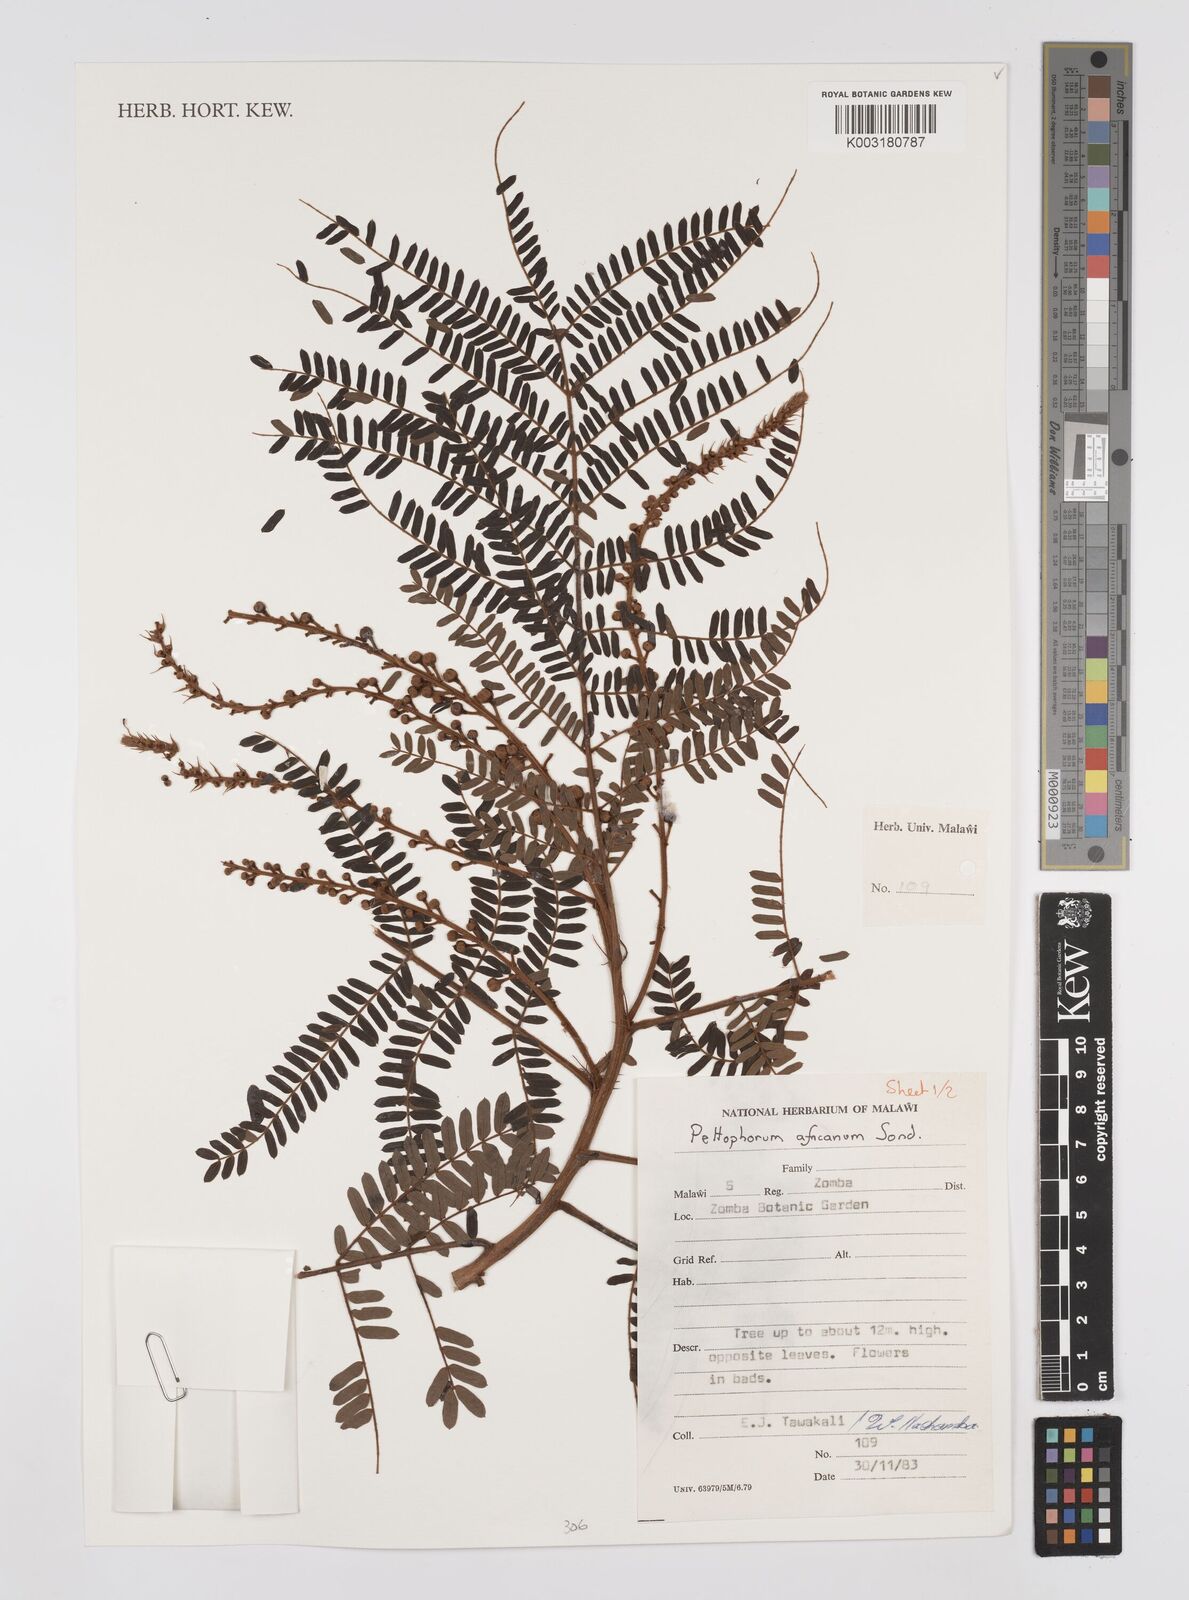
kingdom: Plantae
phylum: Tracheophyta
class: Magnoliopsida
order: Fabales
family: Fabaceae
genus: Peltophorum
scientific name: Peltophorum africanum
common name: African black wattle
